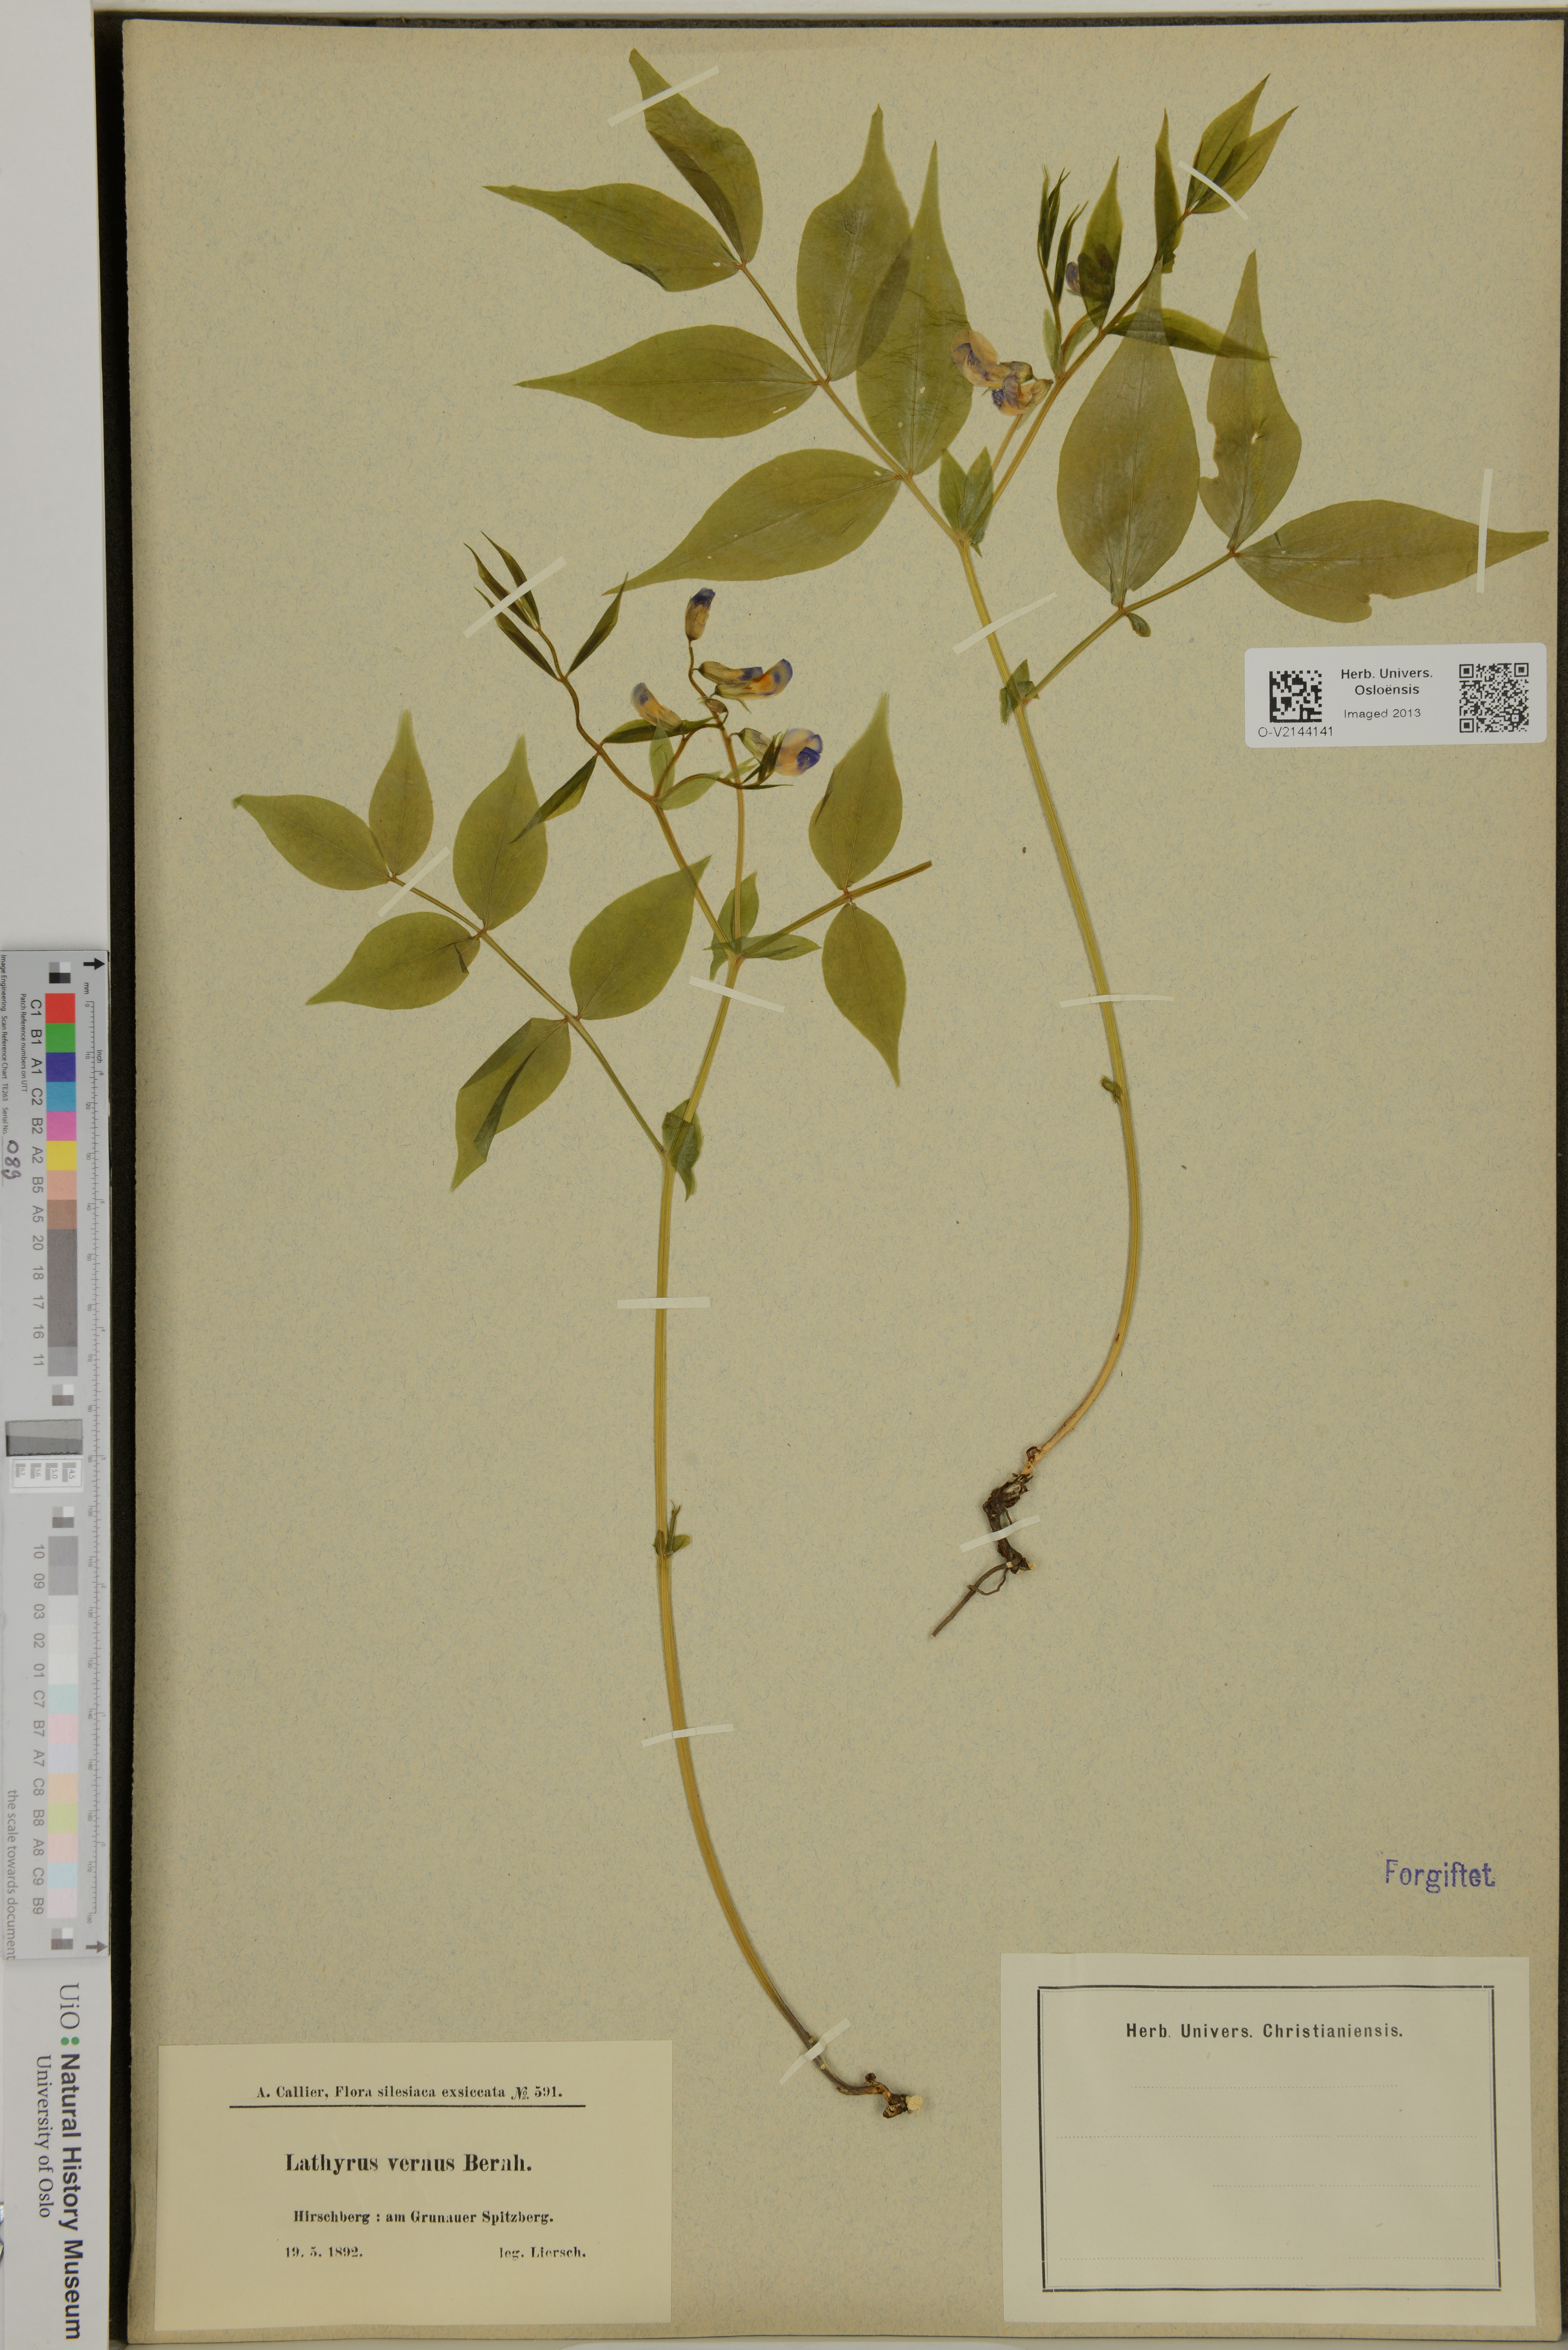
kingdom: Plantae
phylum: Tracheophyta
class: Magnoliopsida
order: Fabales
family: Fabaceae
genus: Lathyrus
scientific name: Lathyrus vernus
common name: Spring pea
